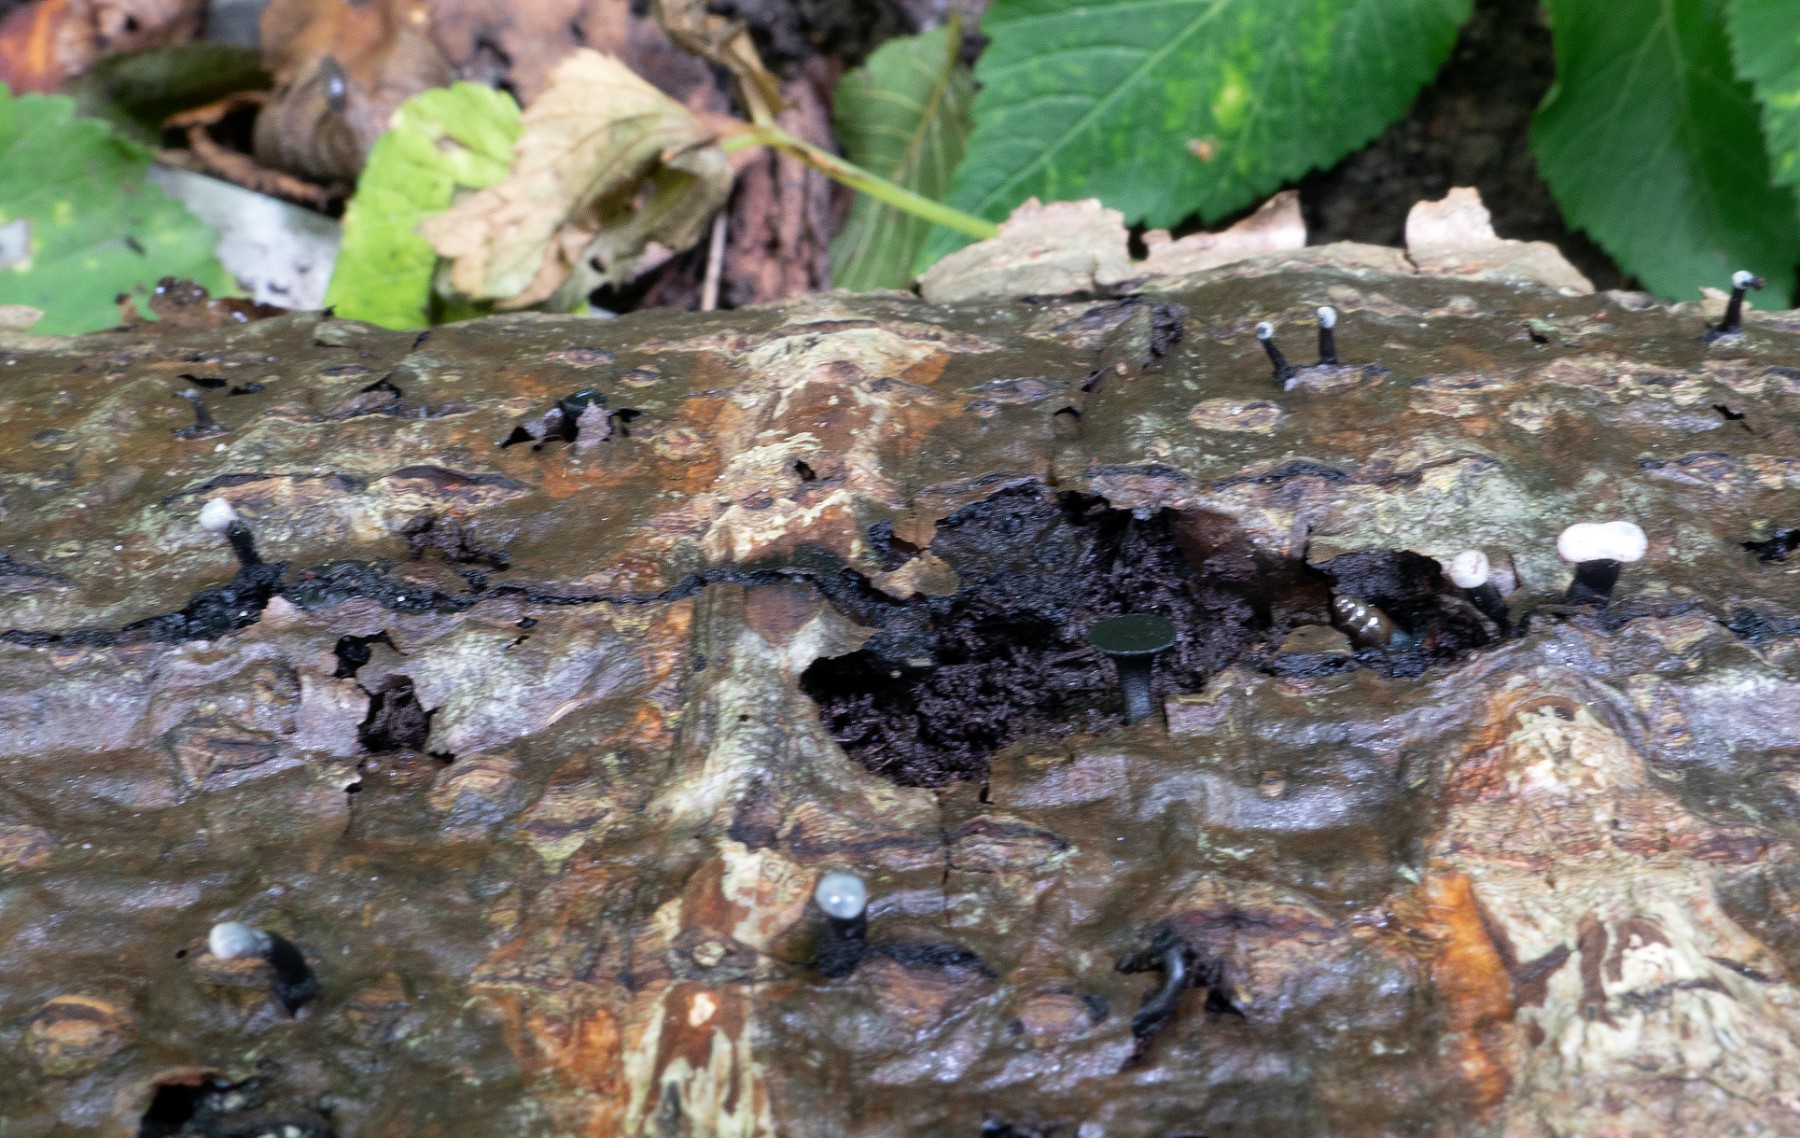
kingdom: Fungi
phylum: Ascomycota
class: Leotiomycetes
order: Helotiales
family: Bulgariaceae
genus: Holwaya
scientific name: Holwaya mucida
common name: lindeskive
